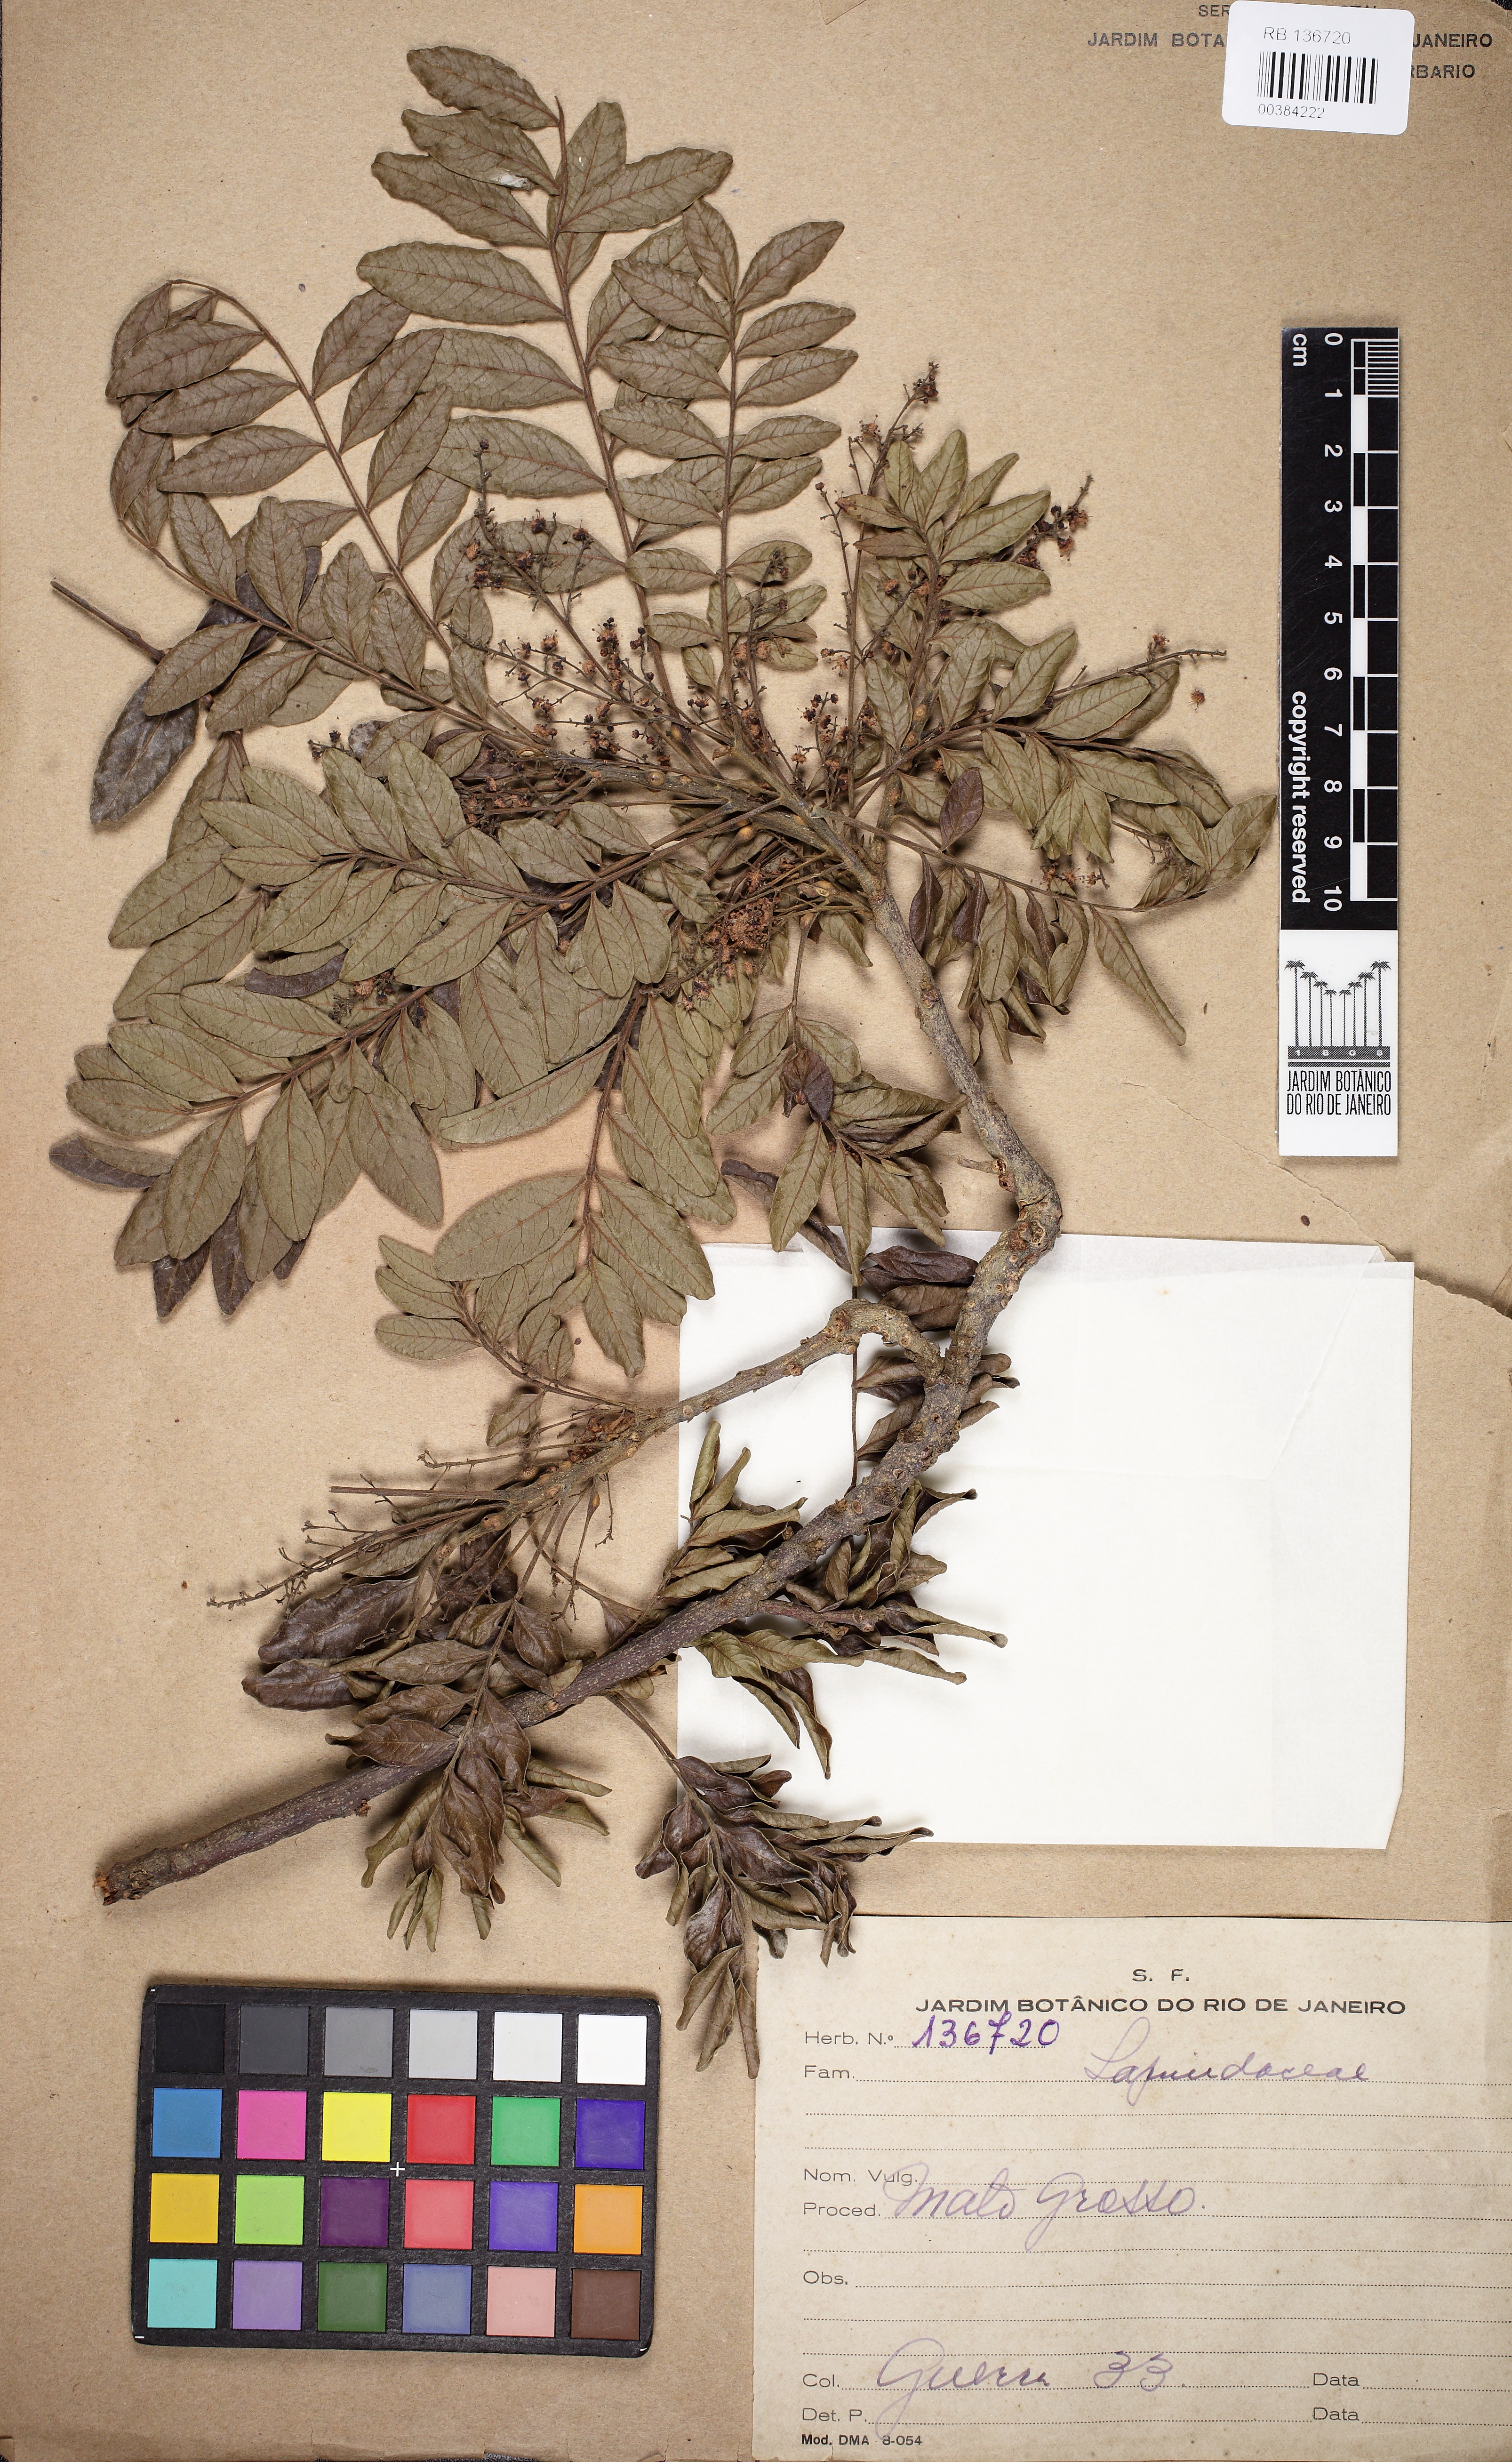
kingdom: Plantae
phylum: Tracheophyta
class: Magnoliopsida
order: Sapindales
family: Sapindaceae
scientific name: Sapindaceae
